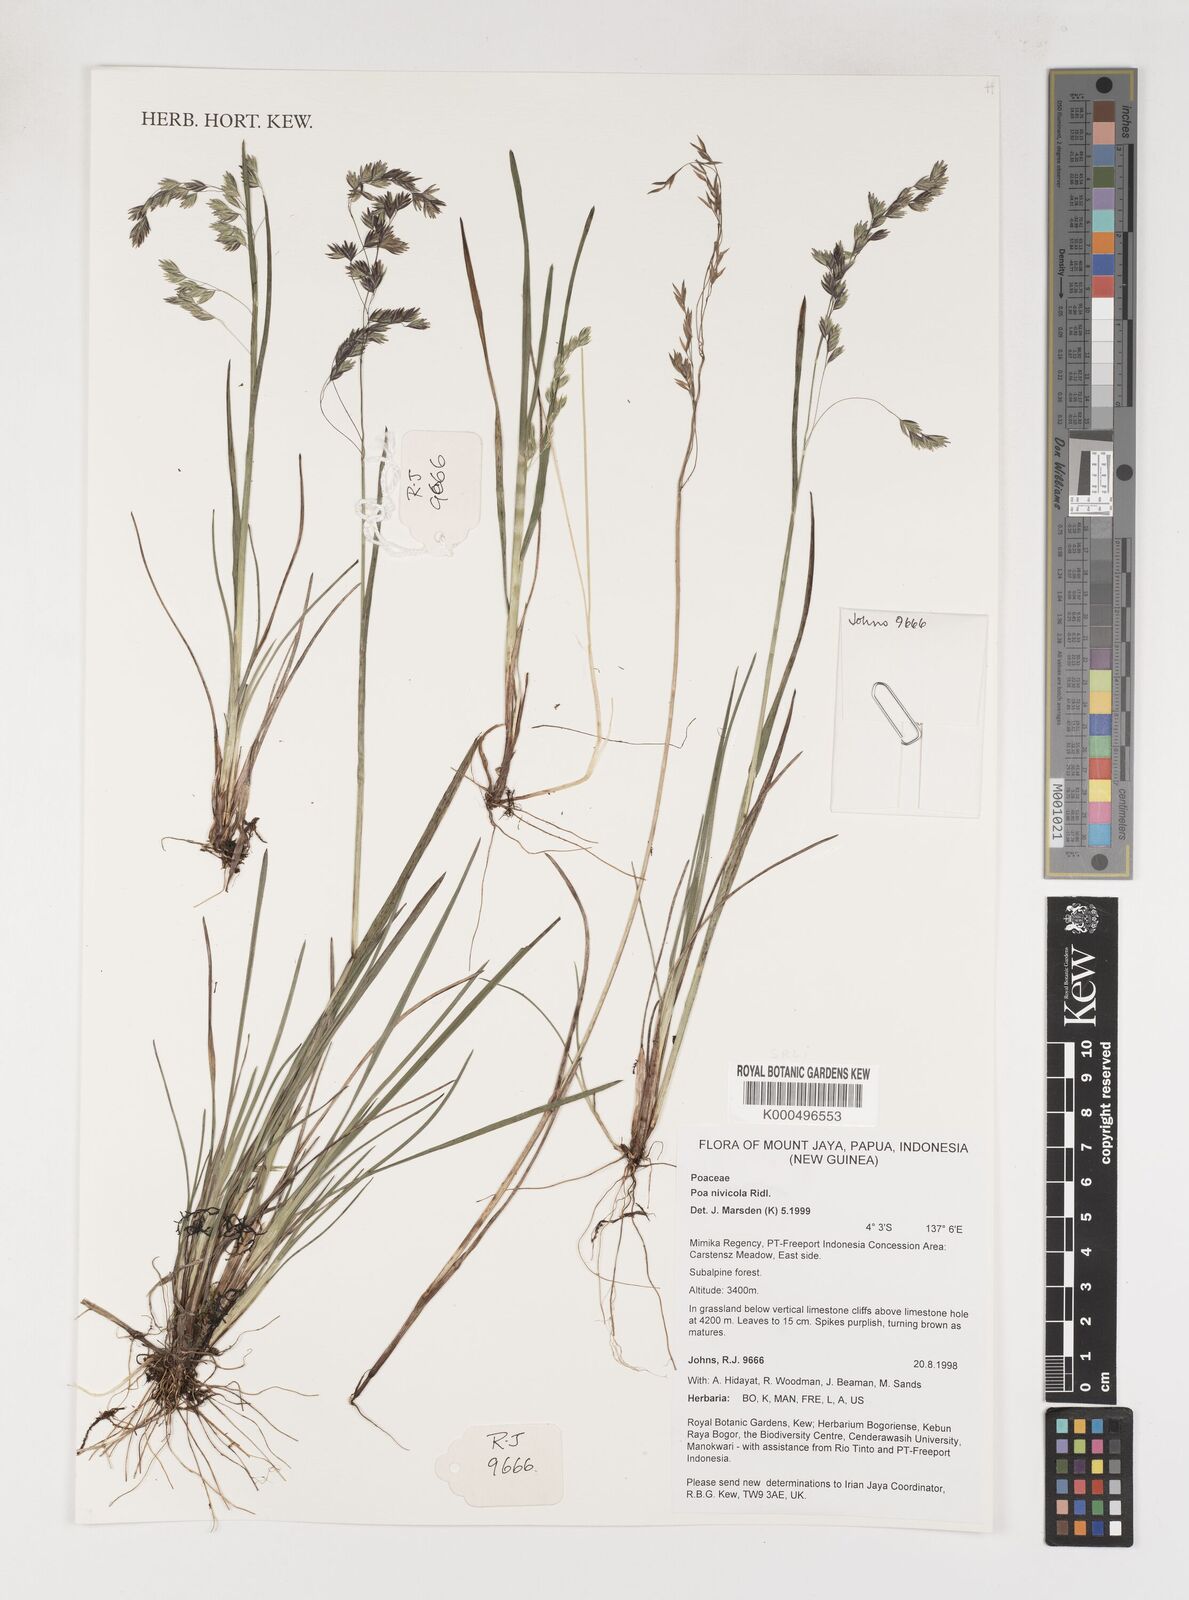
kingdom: Plantae
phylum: Tracheophyta
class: Liliopsida
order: Poales
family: Poaceae
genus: Poa
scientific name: Poa
